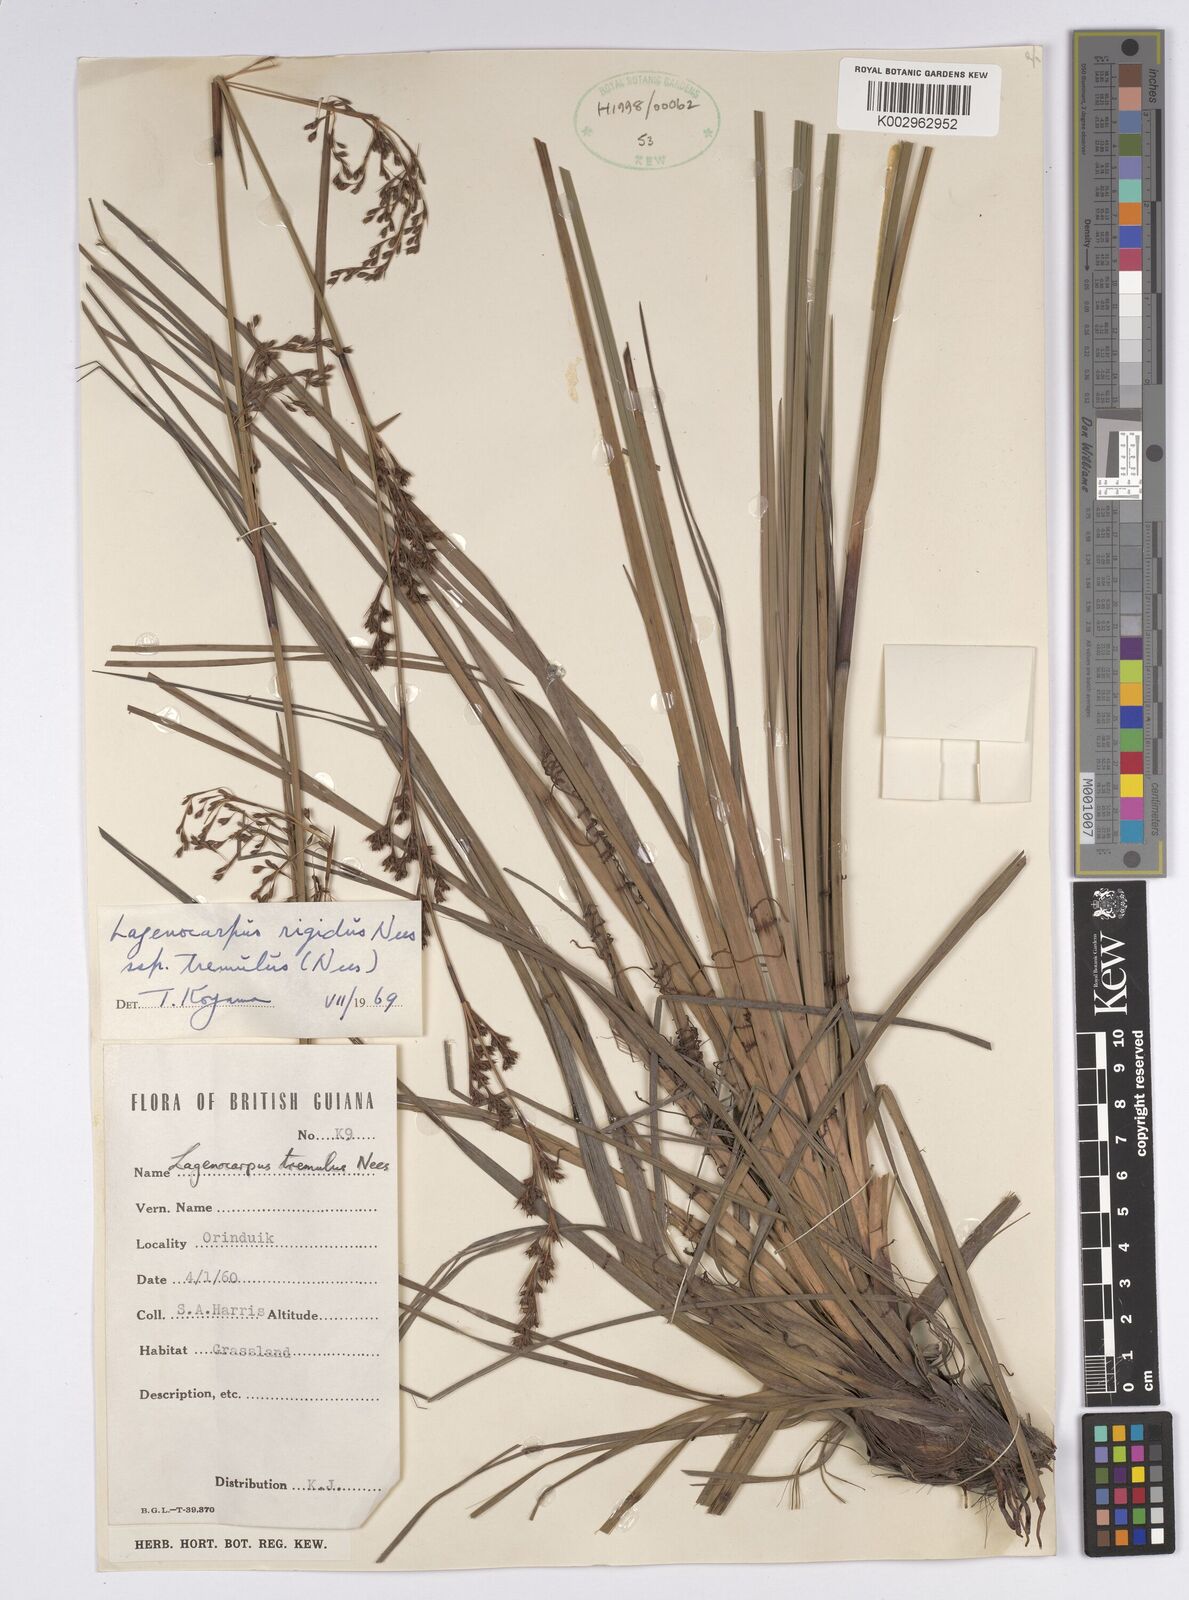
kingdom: Plantae
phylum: Tracheophyta
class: Liliopsida
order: Poales
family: Cyperaceae
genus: Lagenocarpus
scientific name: Lagenocarpus rigidus
